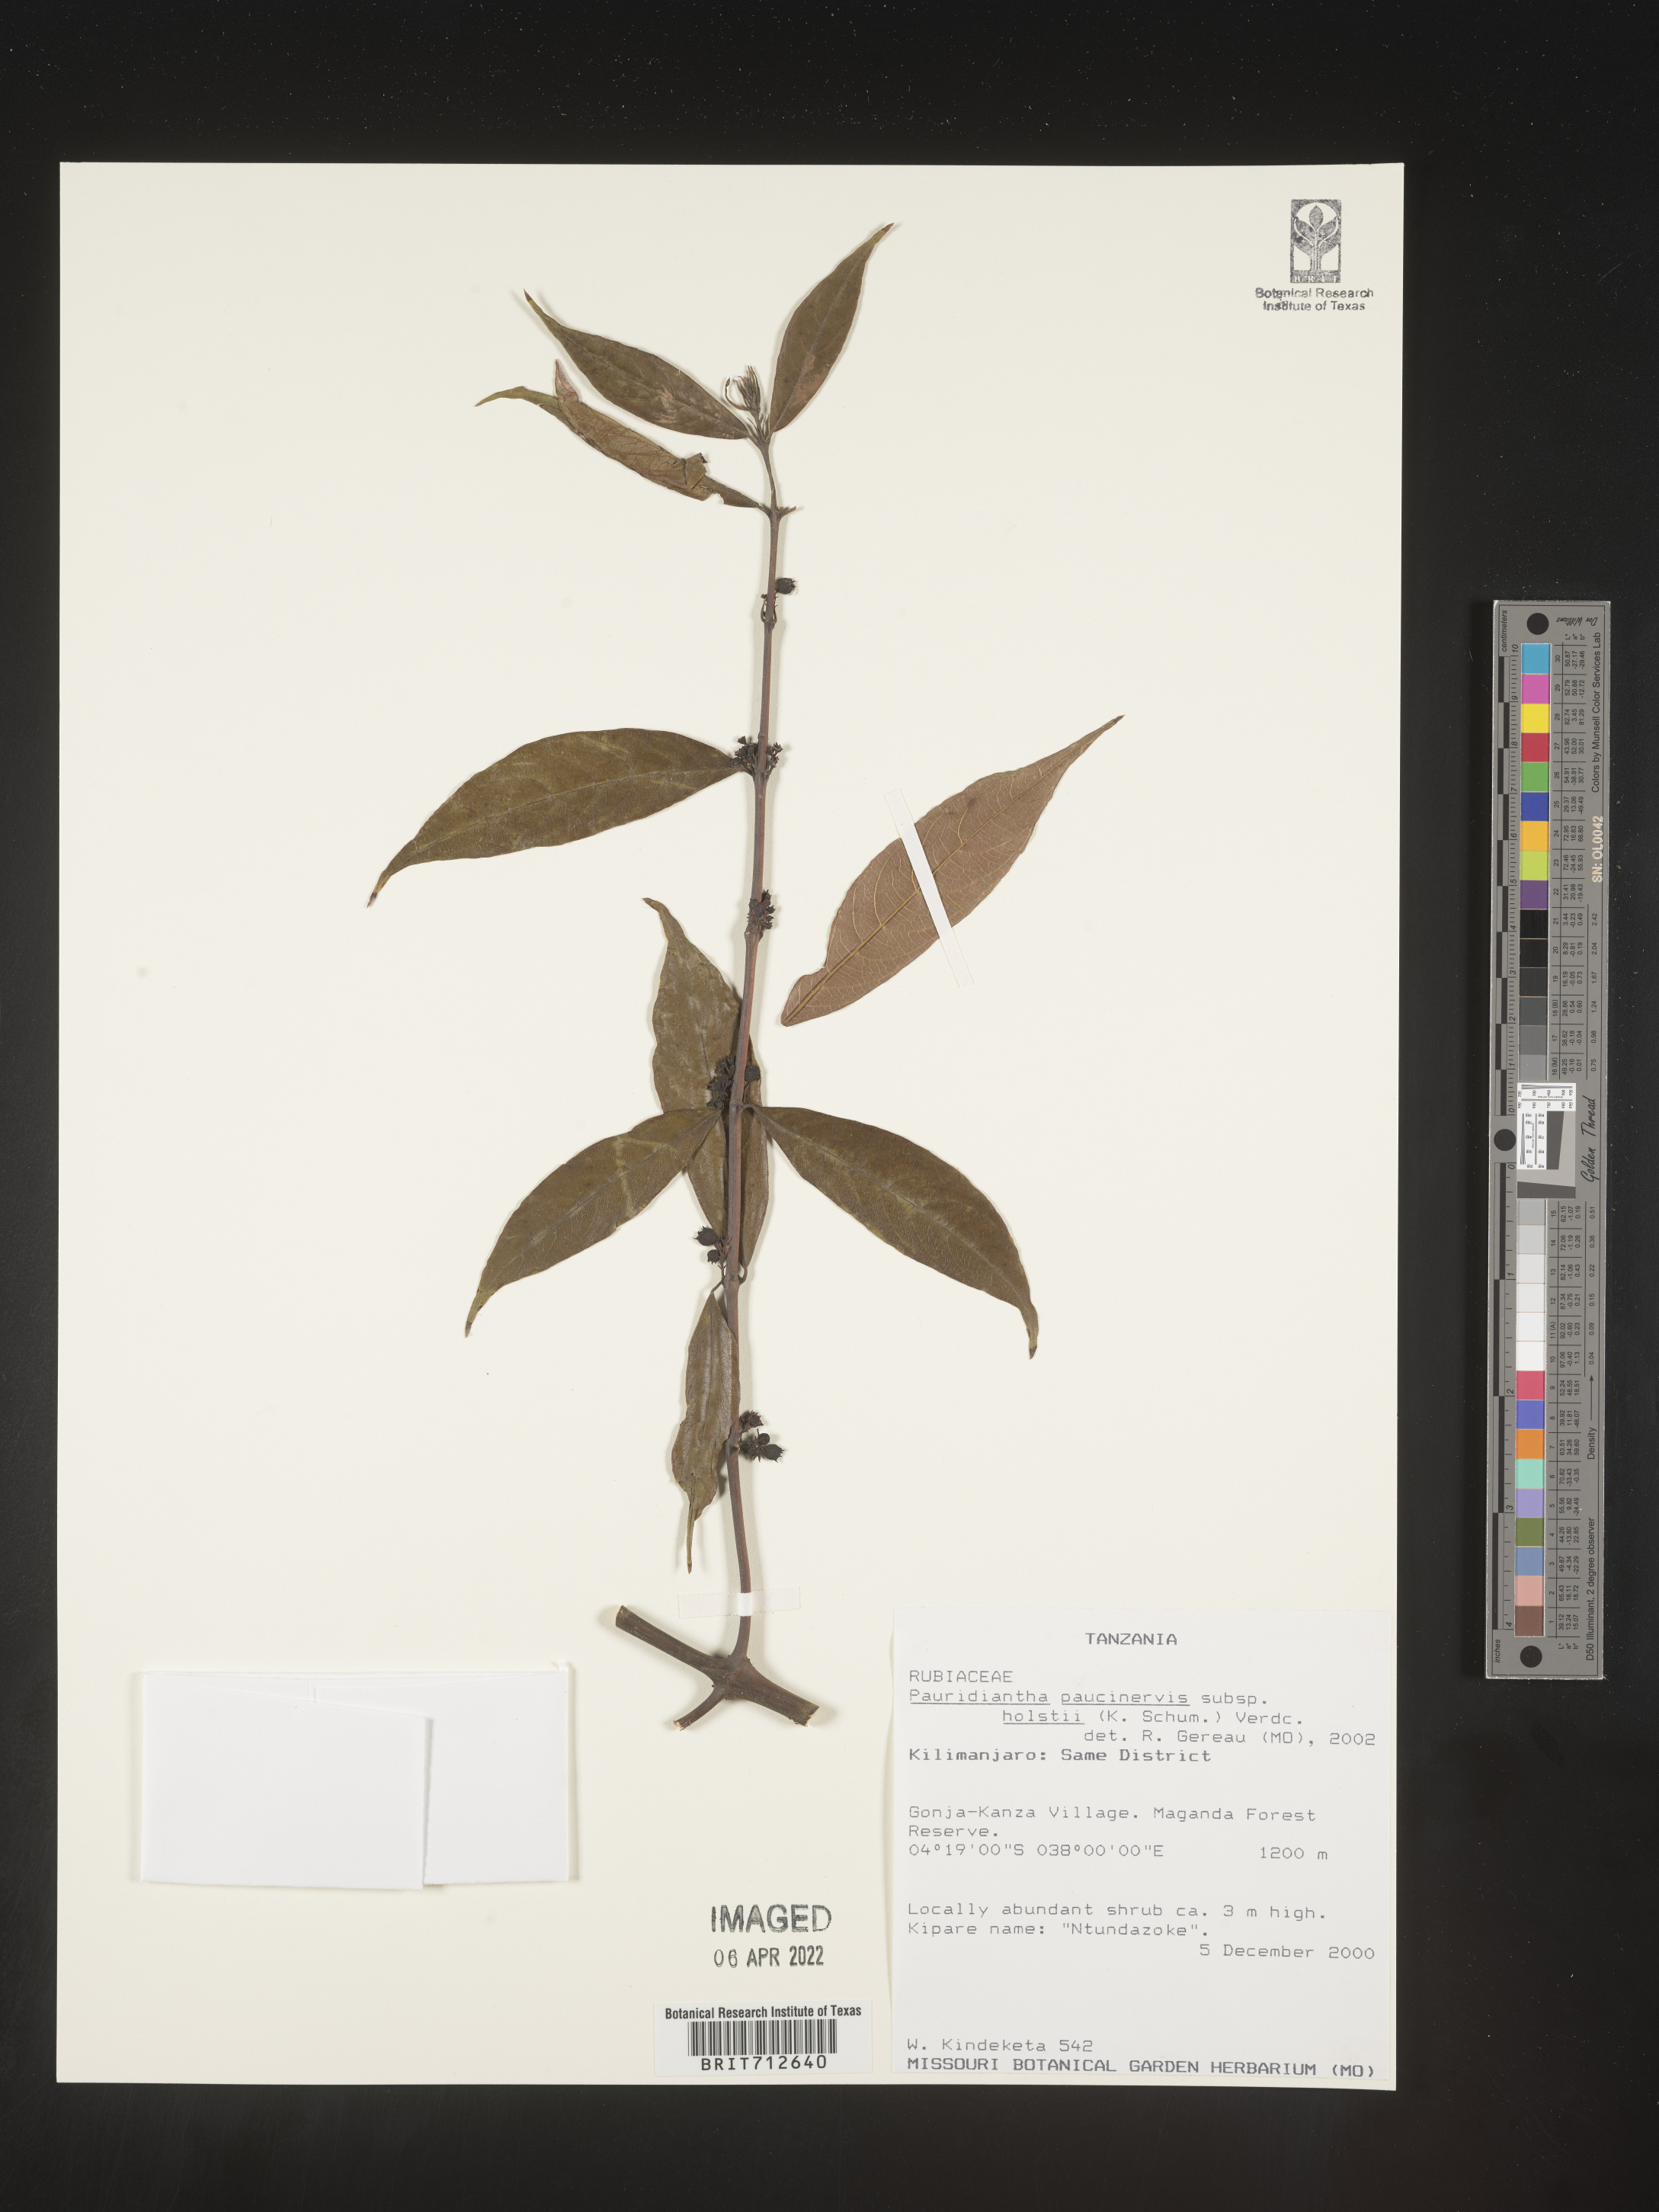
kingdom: Plantae
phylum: Tracheophyta
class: Magnoliopsida
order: Gentianales
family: Rubiaceae
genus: Pauridiantha
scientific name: Pauridiantha
